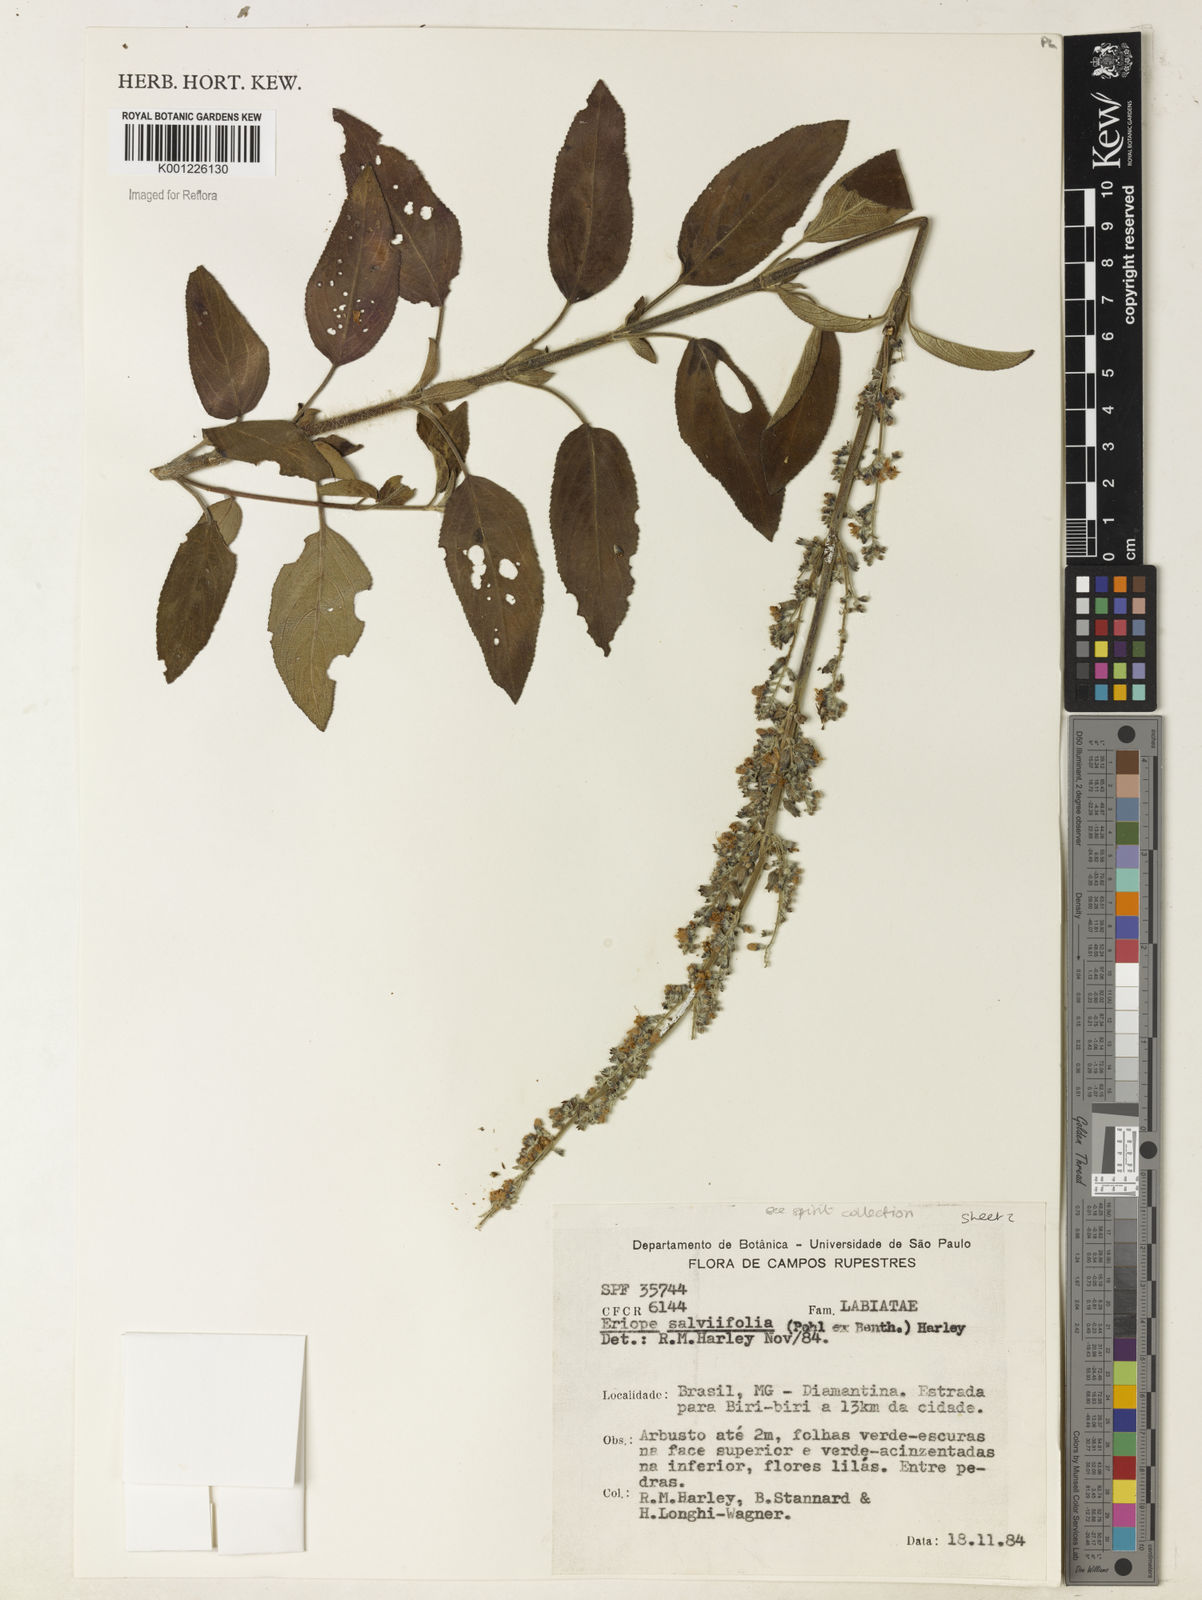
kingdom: Plantae
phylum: Tracheophyta
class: Magnoliopsida
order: Lamiales
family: Lamiaceae
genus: Eriope
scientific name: Eriope salviifolia
